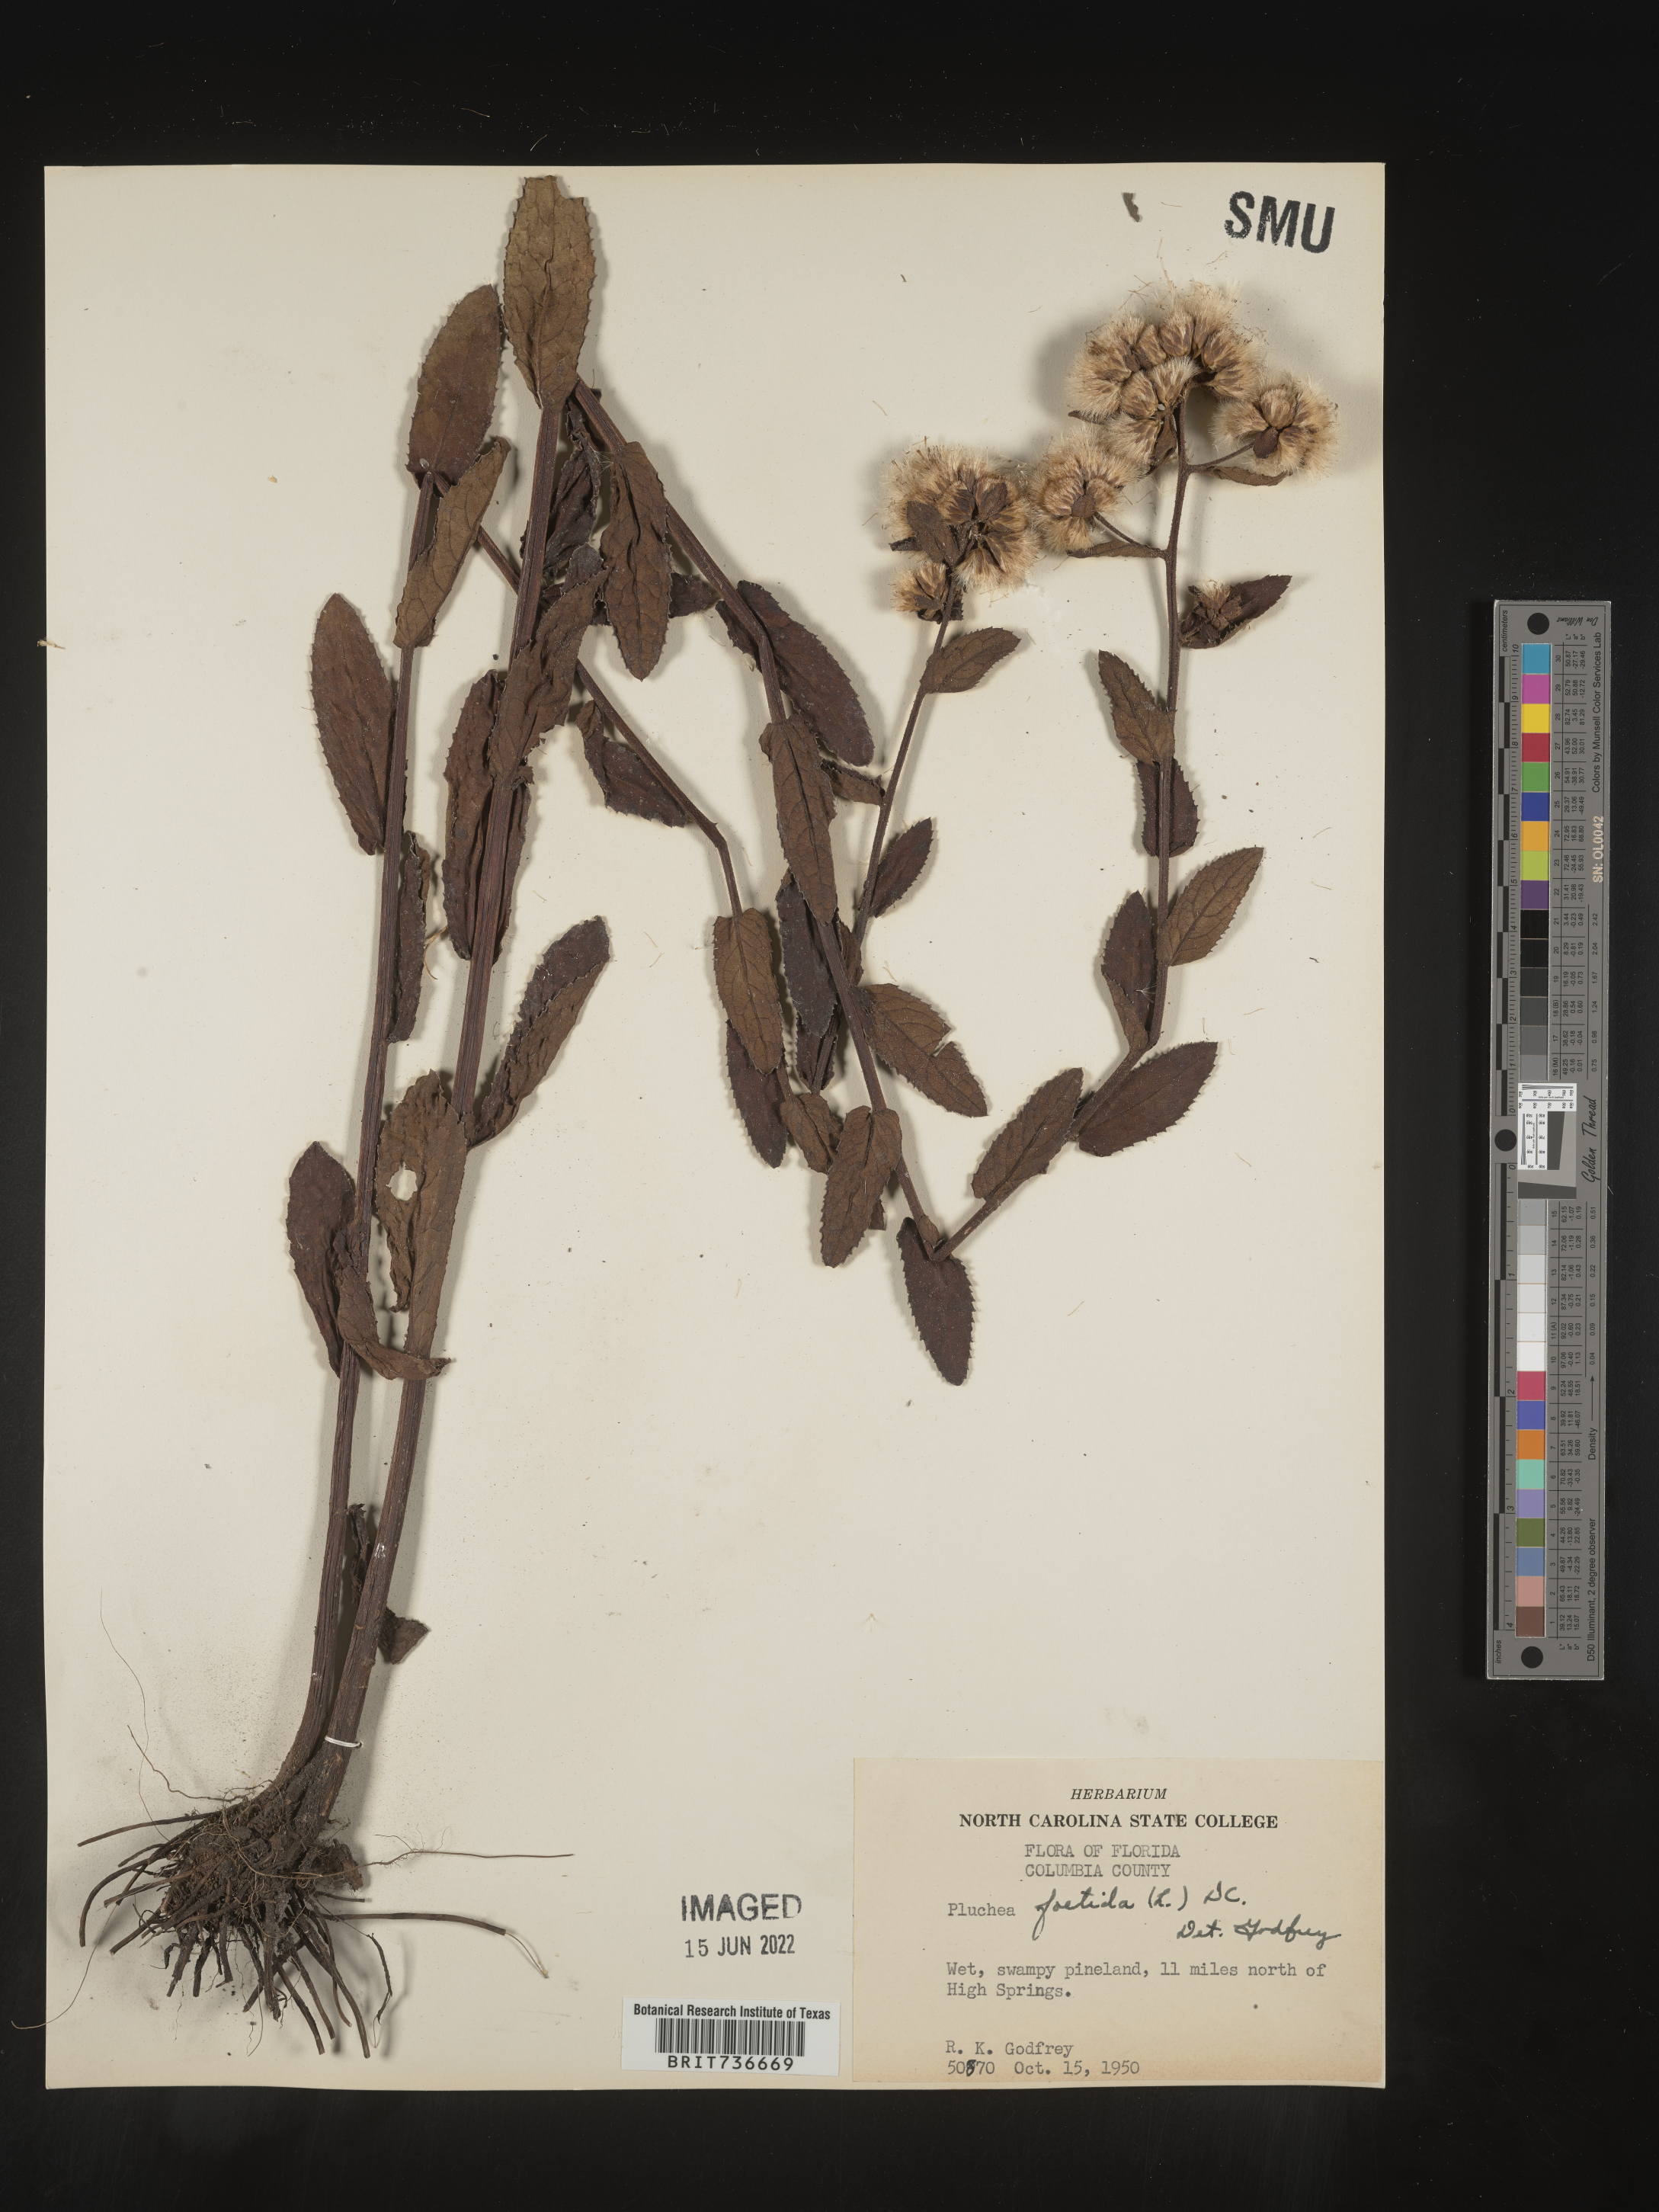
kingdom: Plantae
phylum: Tracheophyta
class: Magnoliopsida
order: Asterales
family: Asteraceae
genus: Pluchea
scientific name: Pluchea foetida
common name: Stinking camphorweed
